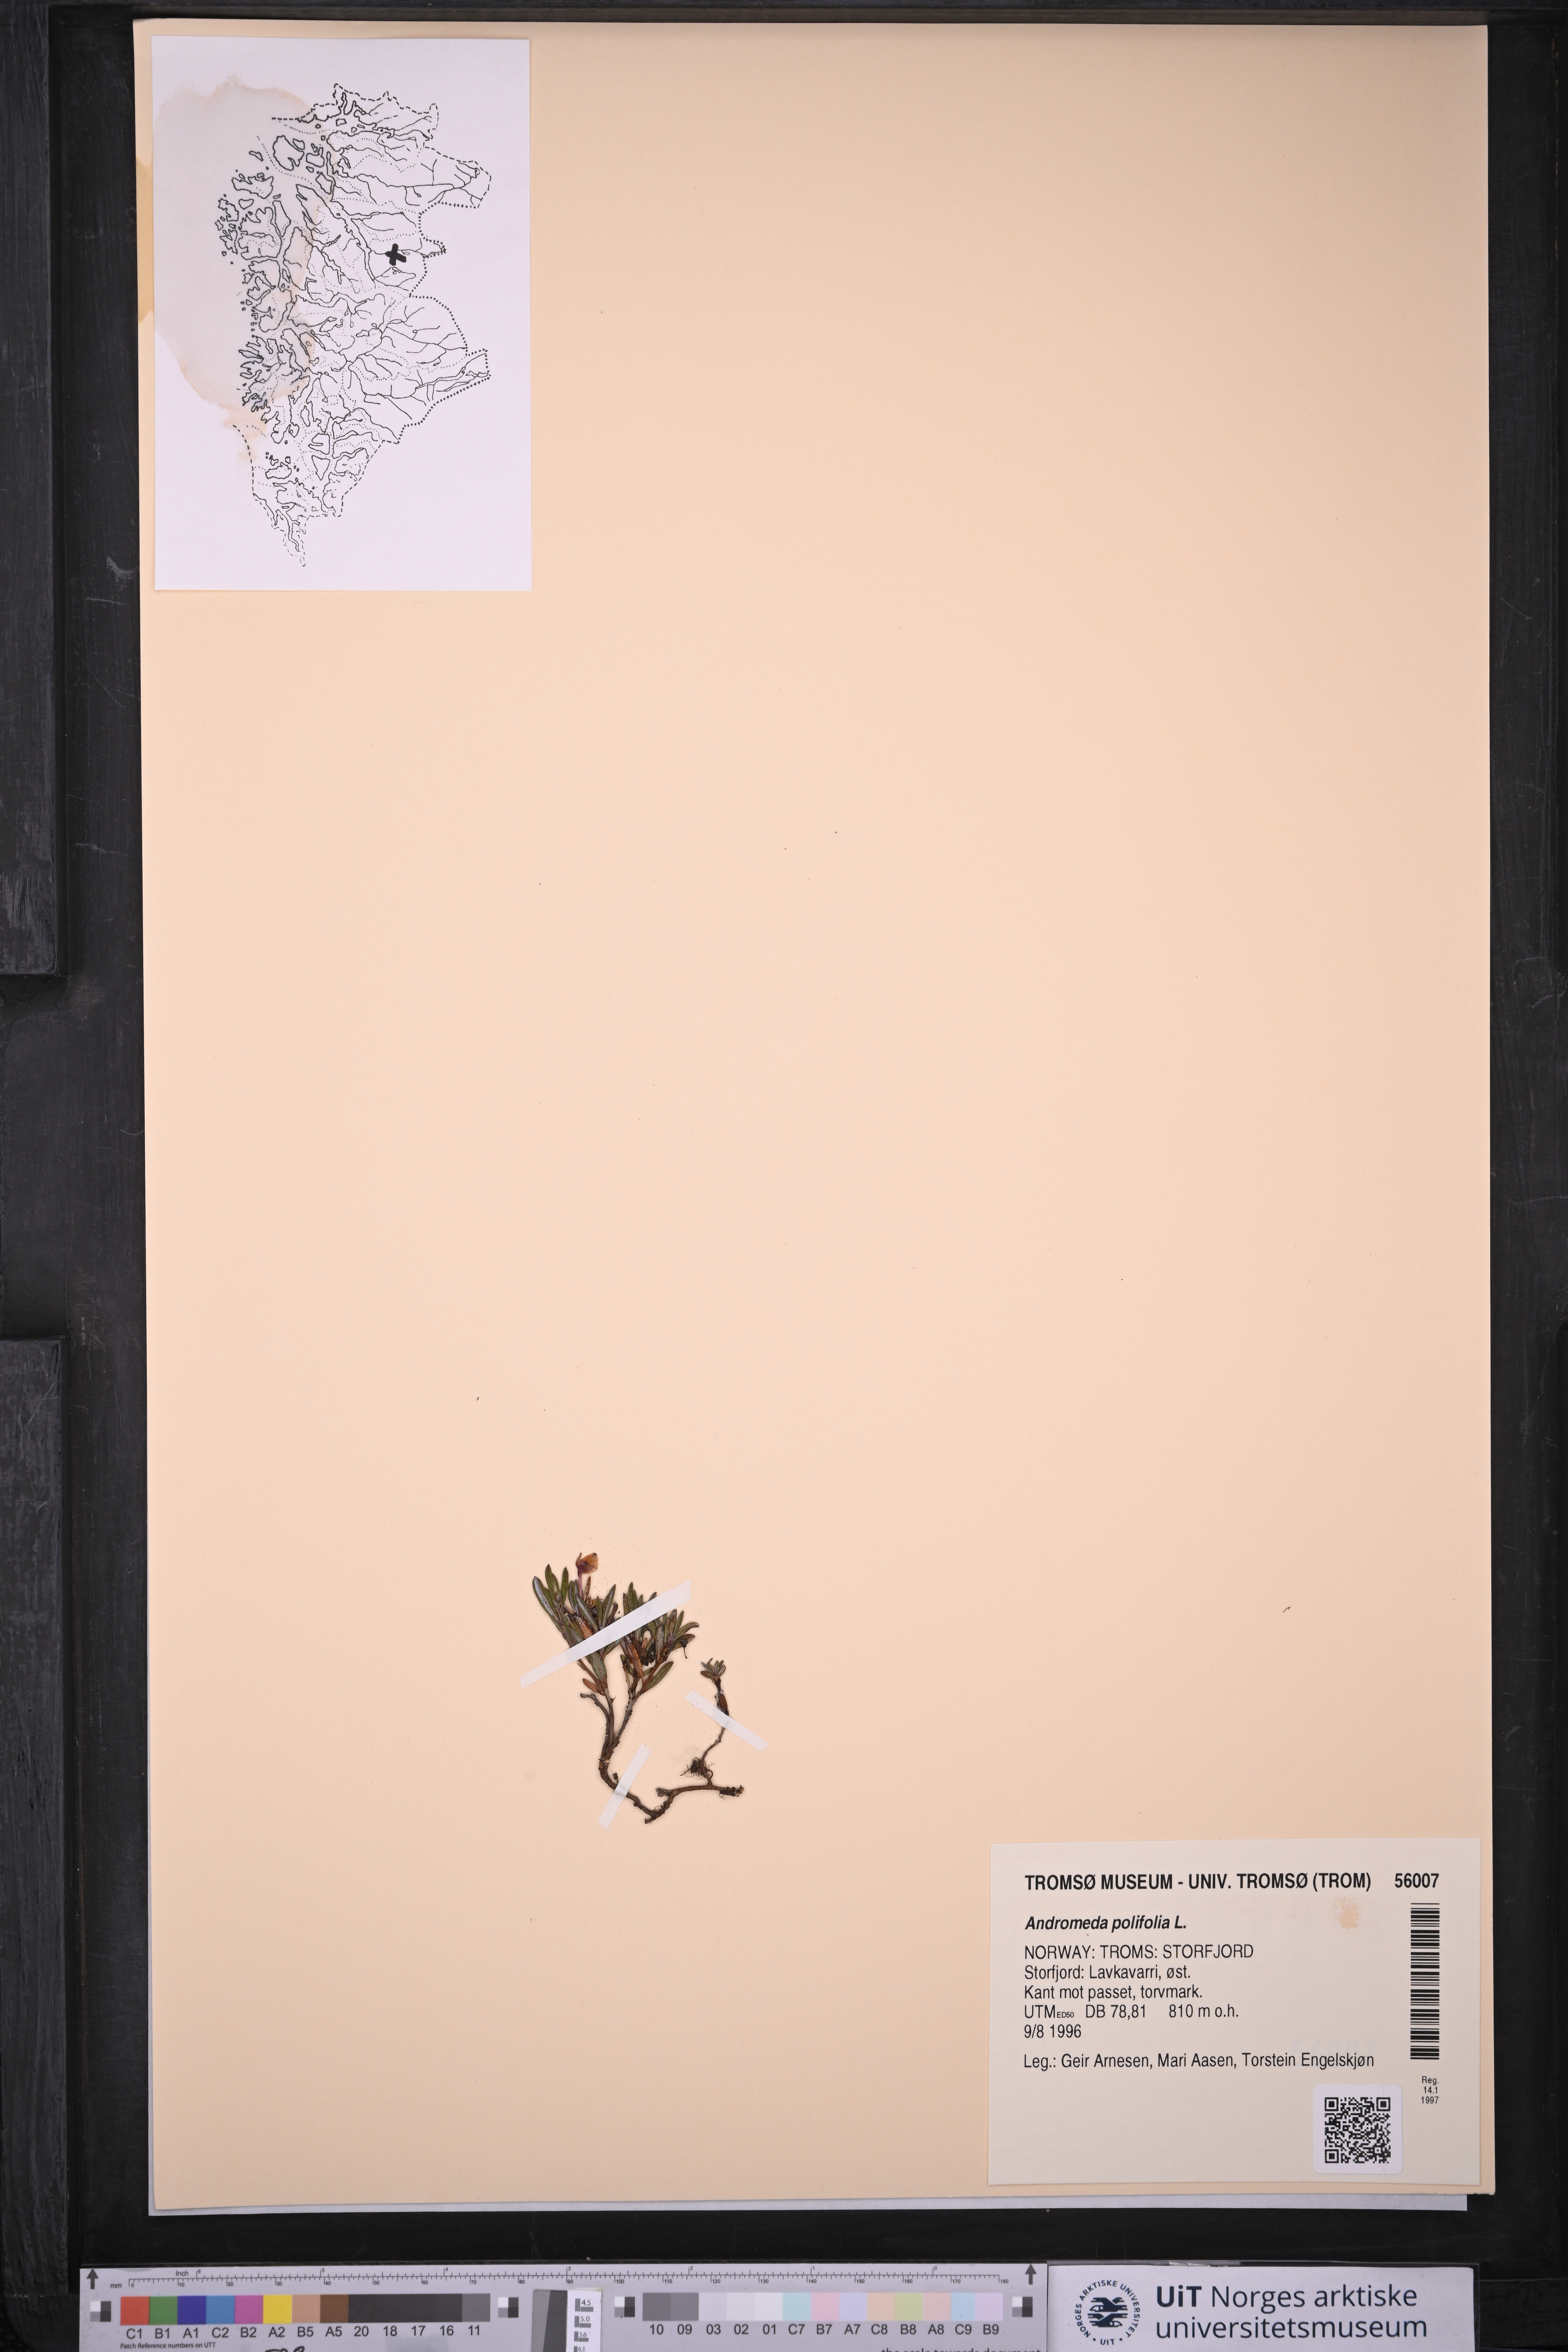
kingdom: Plantae
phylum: Tracheophyta
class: Magnoliopsida
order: Ericales
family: Ericaceae
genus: Andromeda
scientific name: Andromeda polifolia
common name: Bog-rosemary
